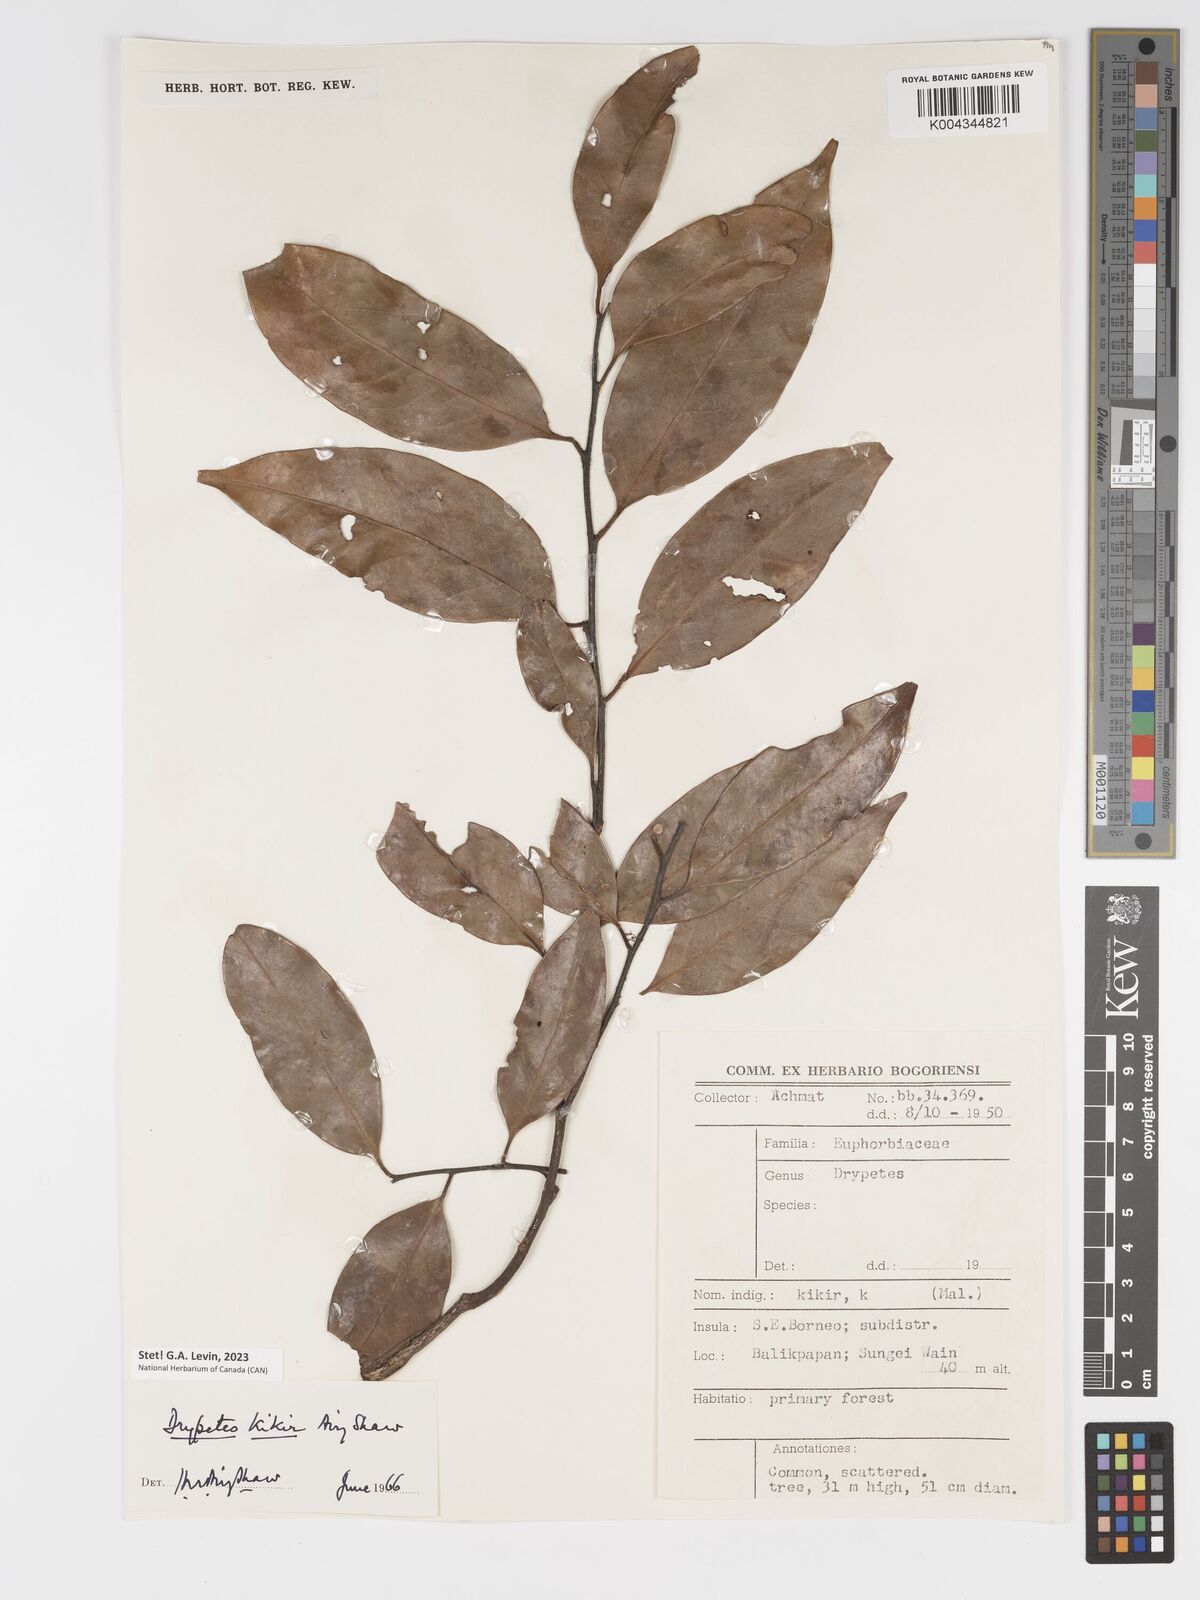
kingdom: Plantae
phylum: Tracheophyta
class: Magnoliopsida
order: Malpighiales
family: Putranjivaceae
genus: Drypetes
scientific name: Drypetes kikir
